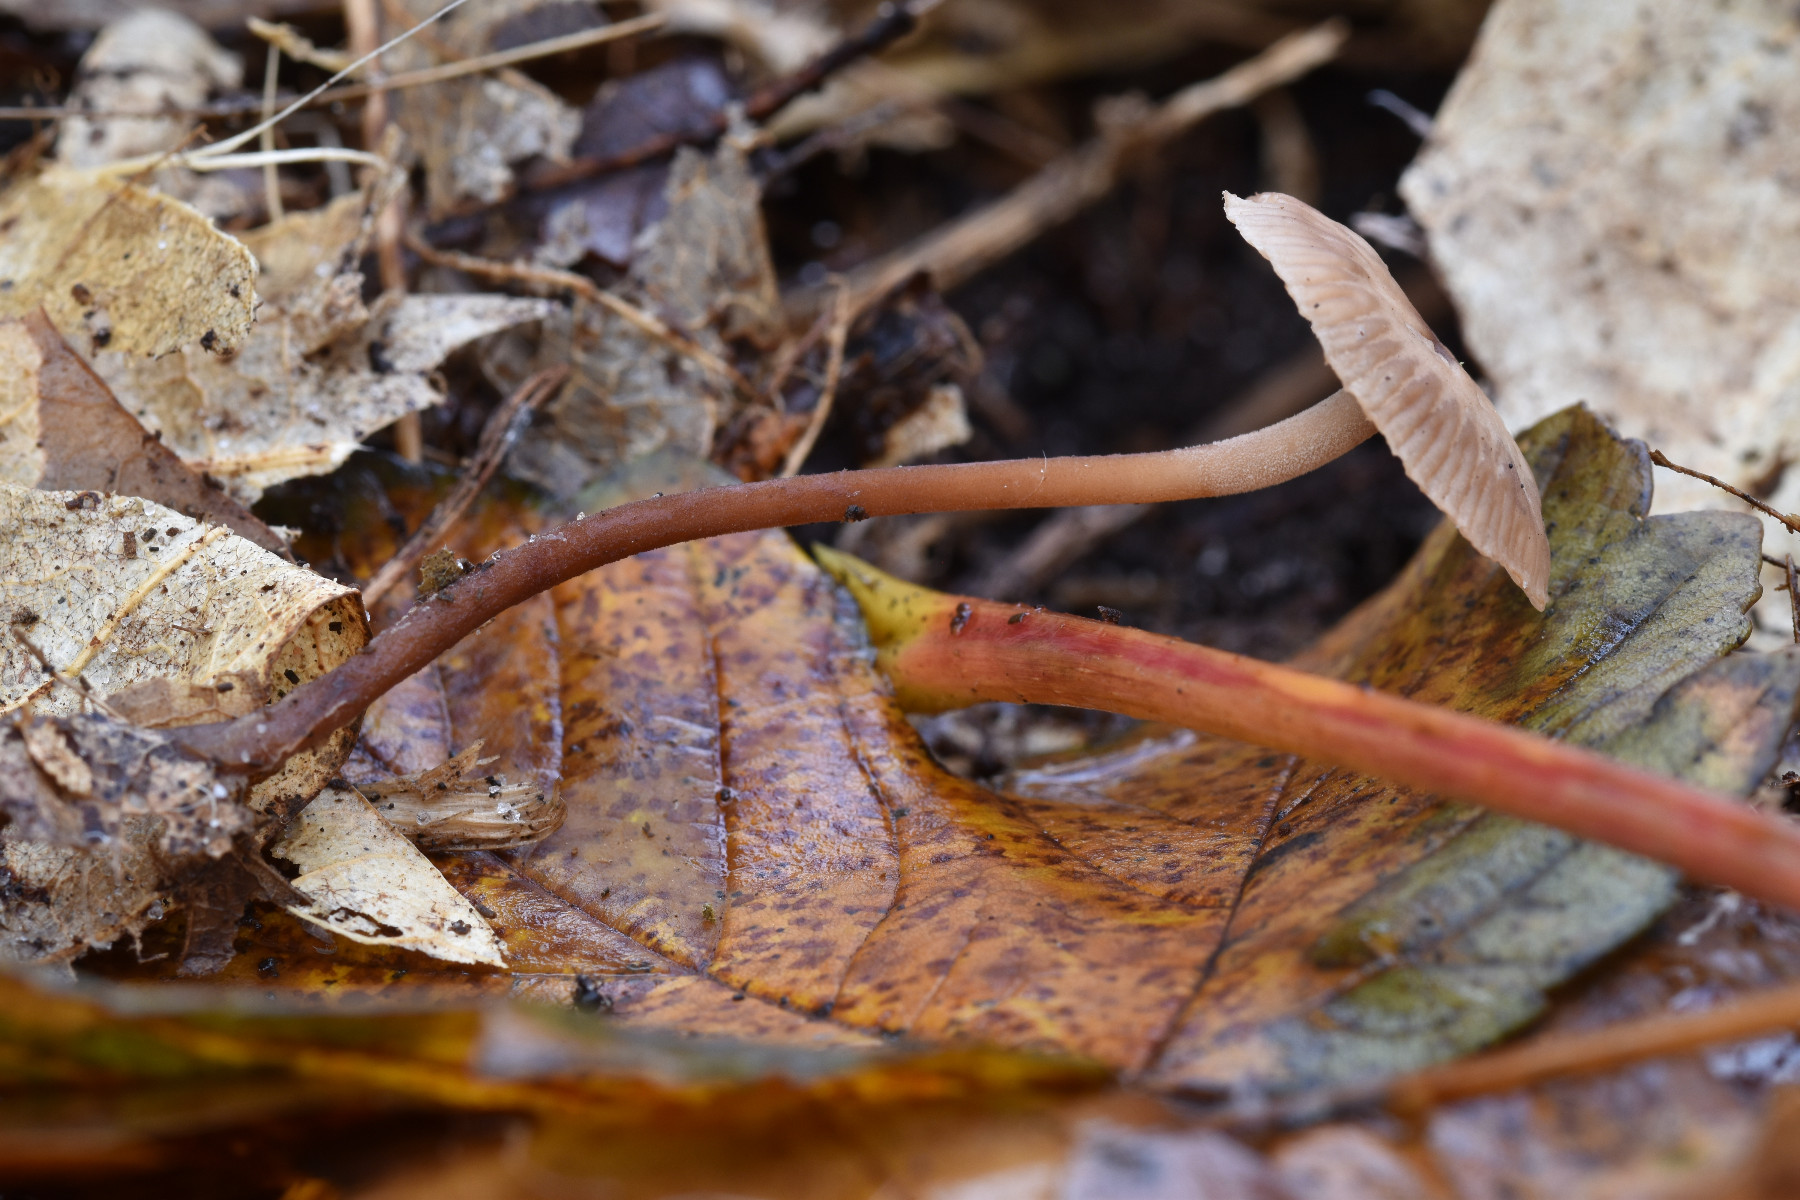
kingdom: Fungi
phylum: Basidiomycota
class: Agaricomycetes
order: Agaricales
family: Omphalotaceae
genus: Mycetinis
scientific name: Mycetinis querceus
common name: ege-løghat
